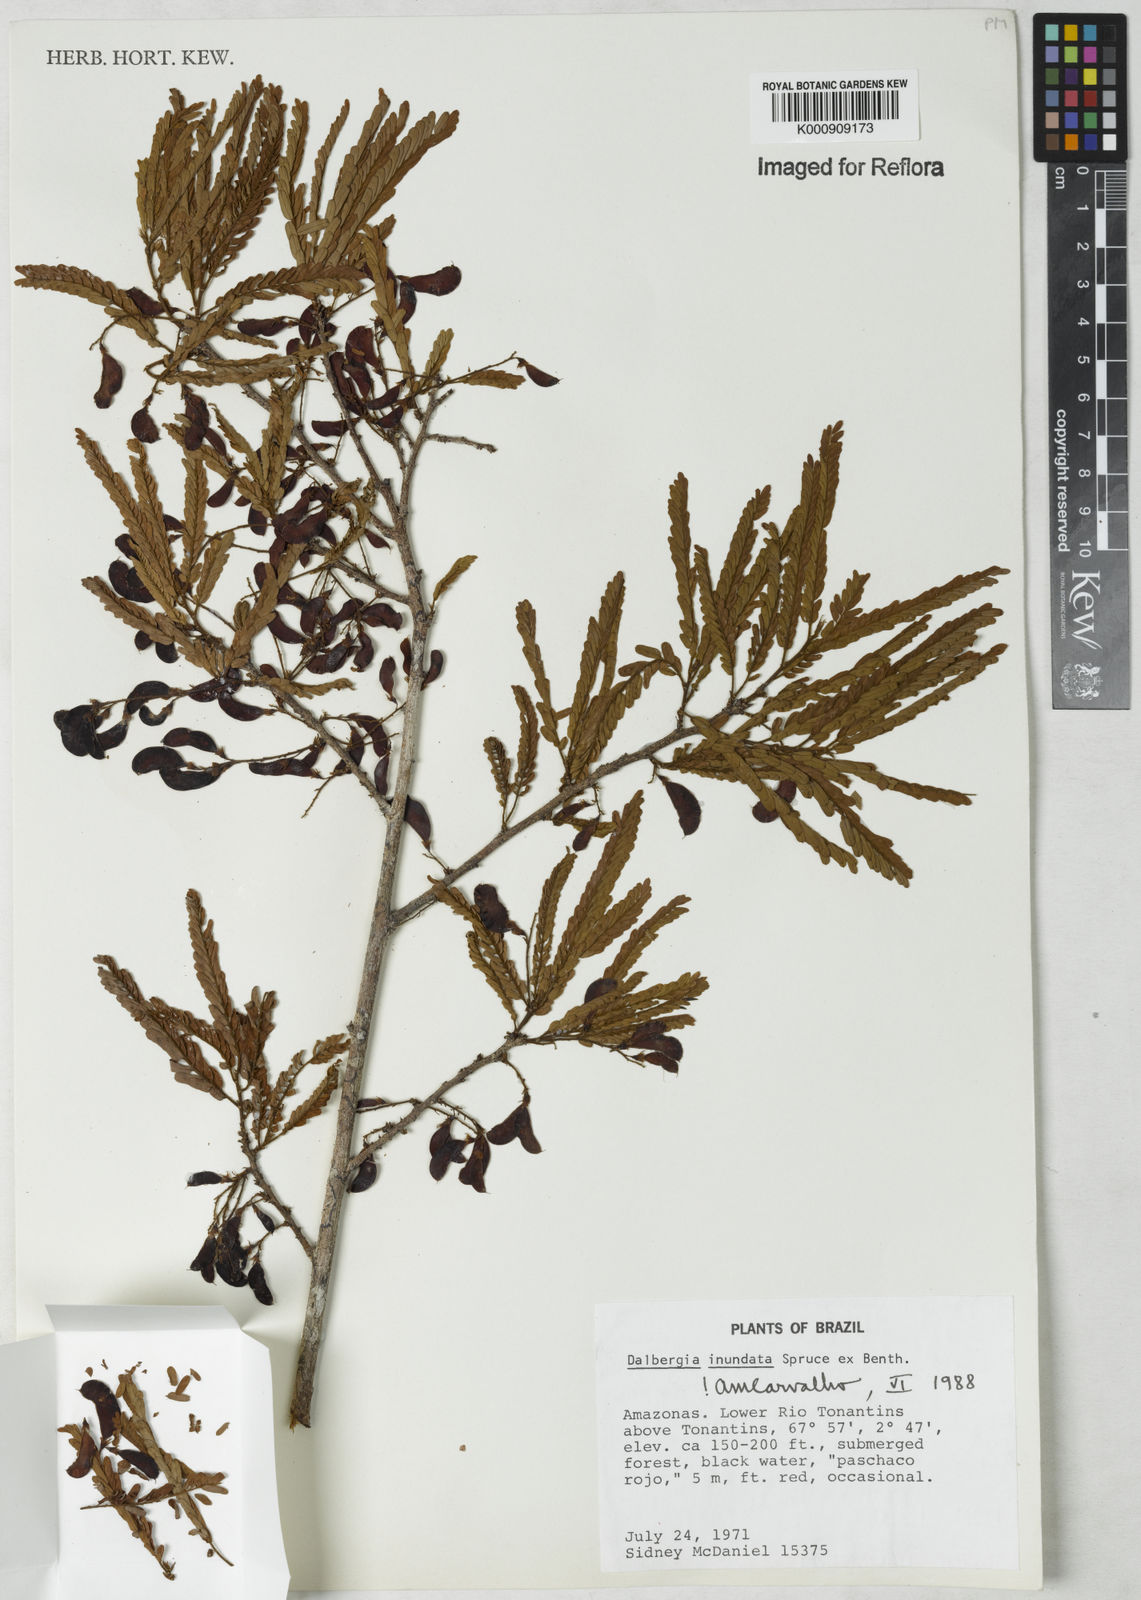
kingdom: Plantae
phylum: Tracheophyta
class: Magnoliopsida
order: Fabales
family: Fabaceae
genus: Dalbergia
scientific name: Dalbergia inundata
